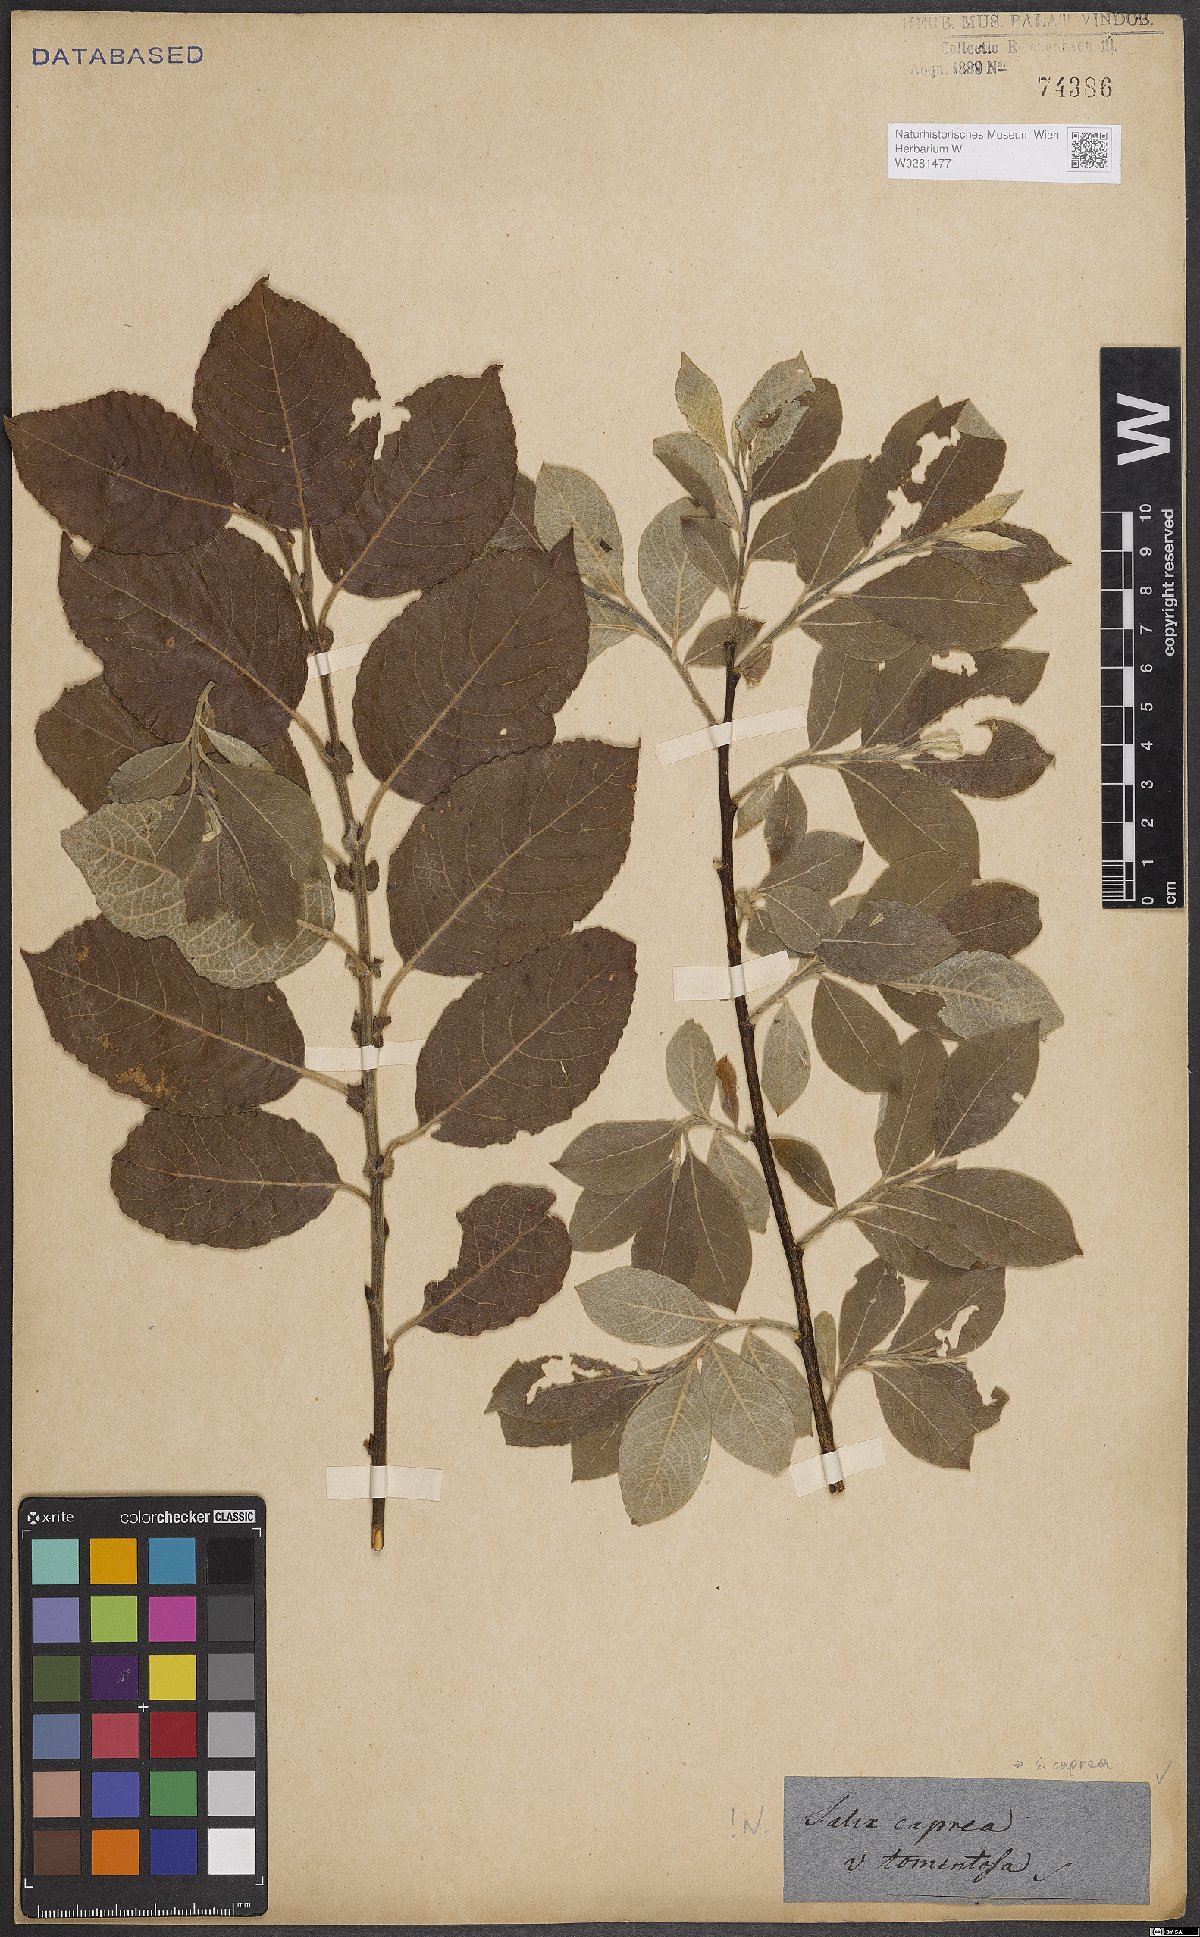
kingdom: Plantae
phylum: Tracheophyta
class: Magnoliopsida
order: Malpighiales
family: Salicaceae
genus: Salix
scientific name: Salix caprea
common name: Goat willow
